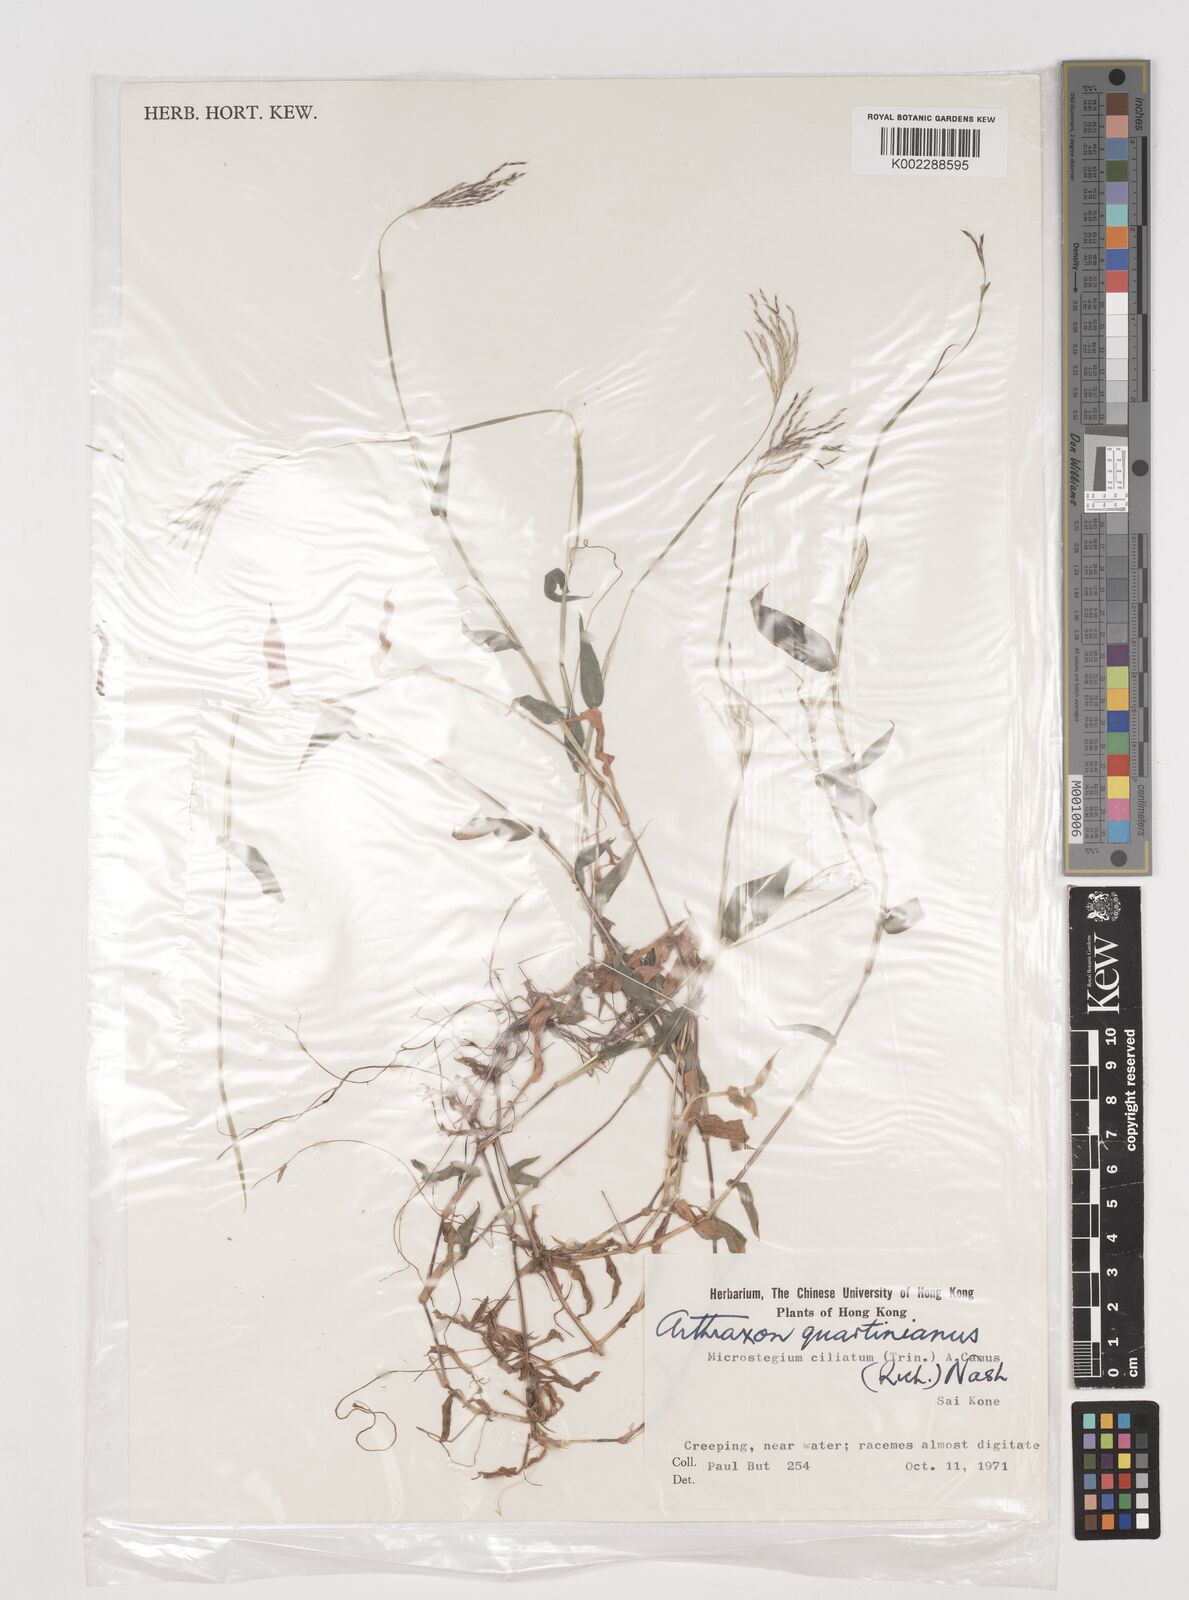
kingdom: Plantae
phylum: Tracheophyta
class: Liliopsida
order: Poales
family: Poaceae
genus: Arthraxon
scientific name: Arthraxon hispidus
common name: Small carpgrass
